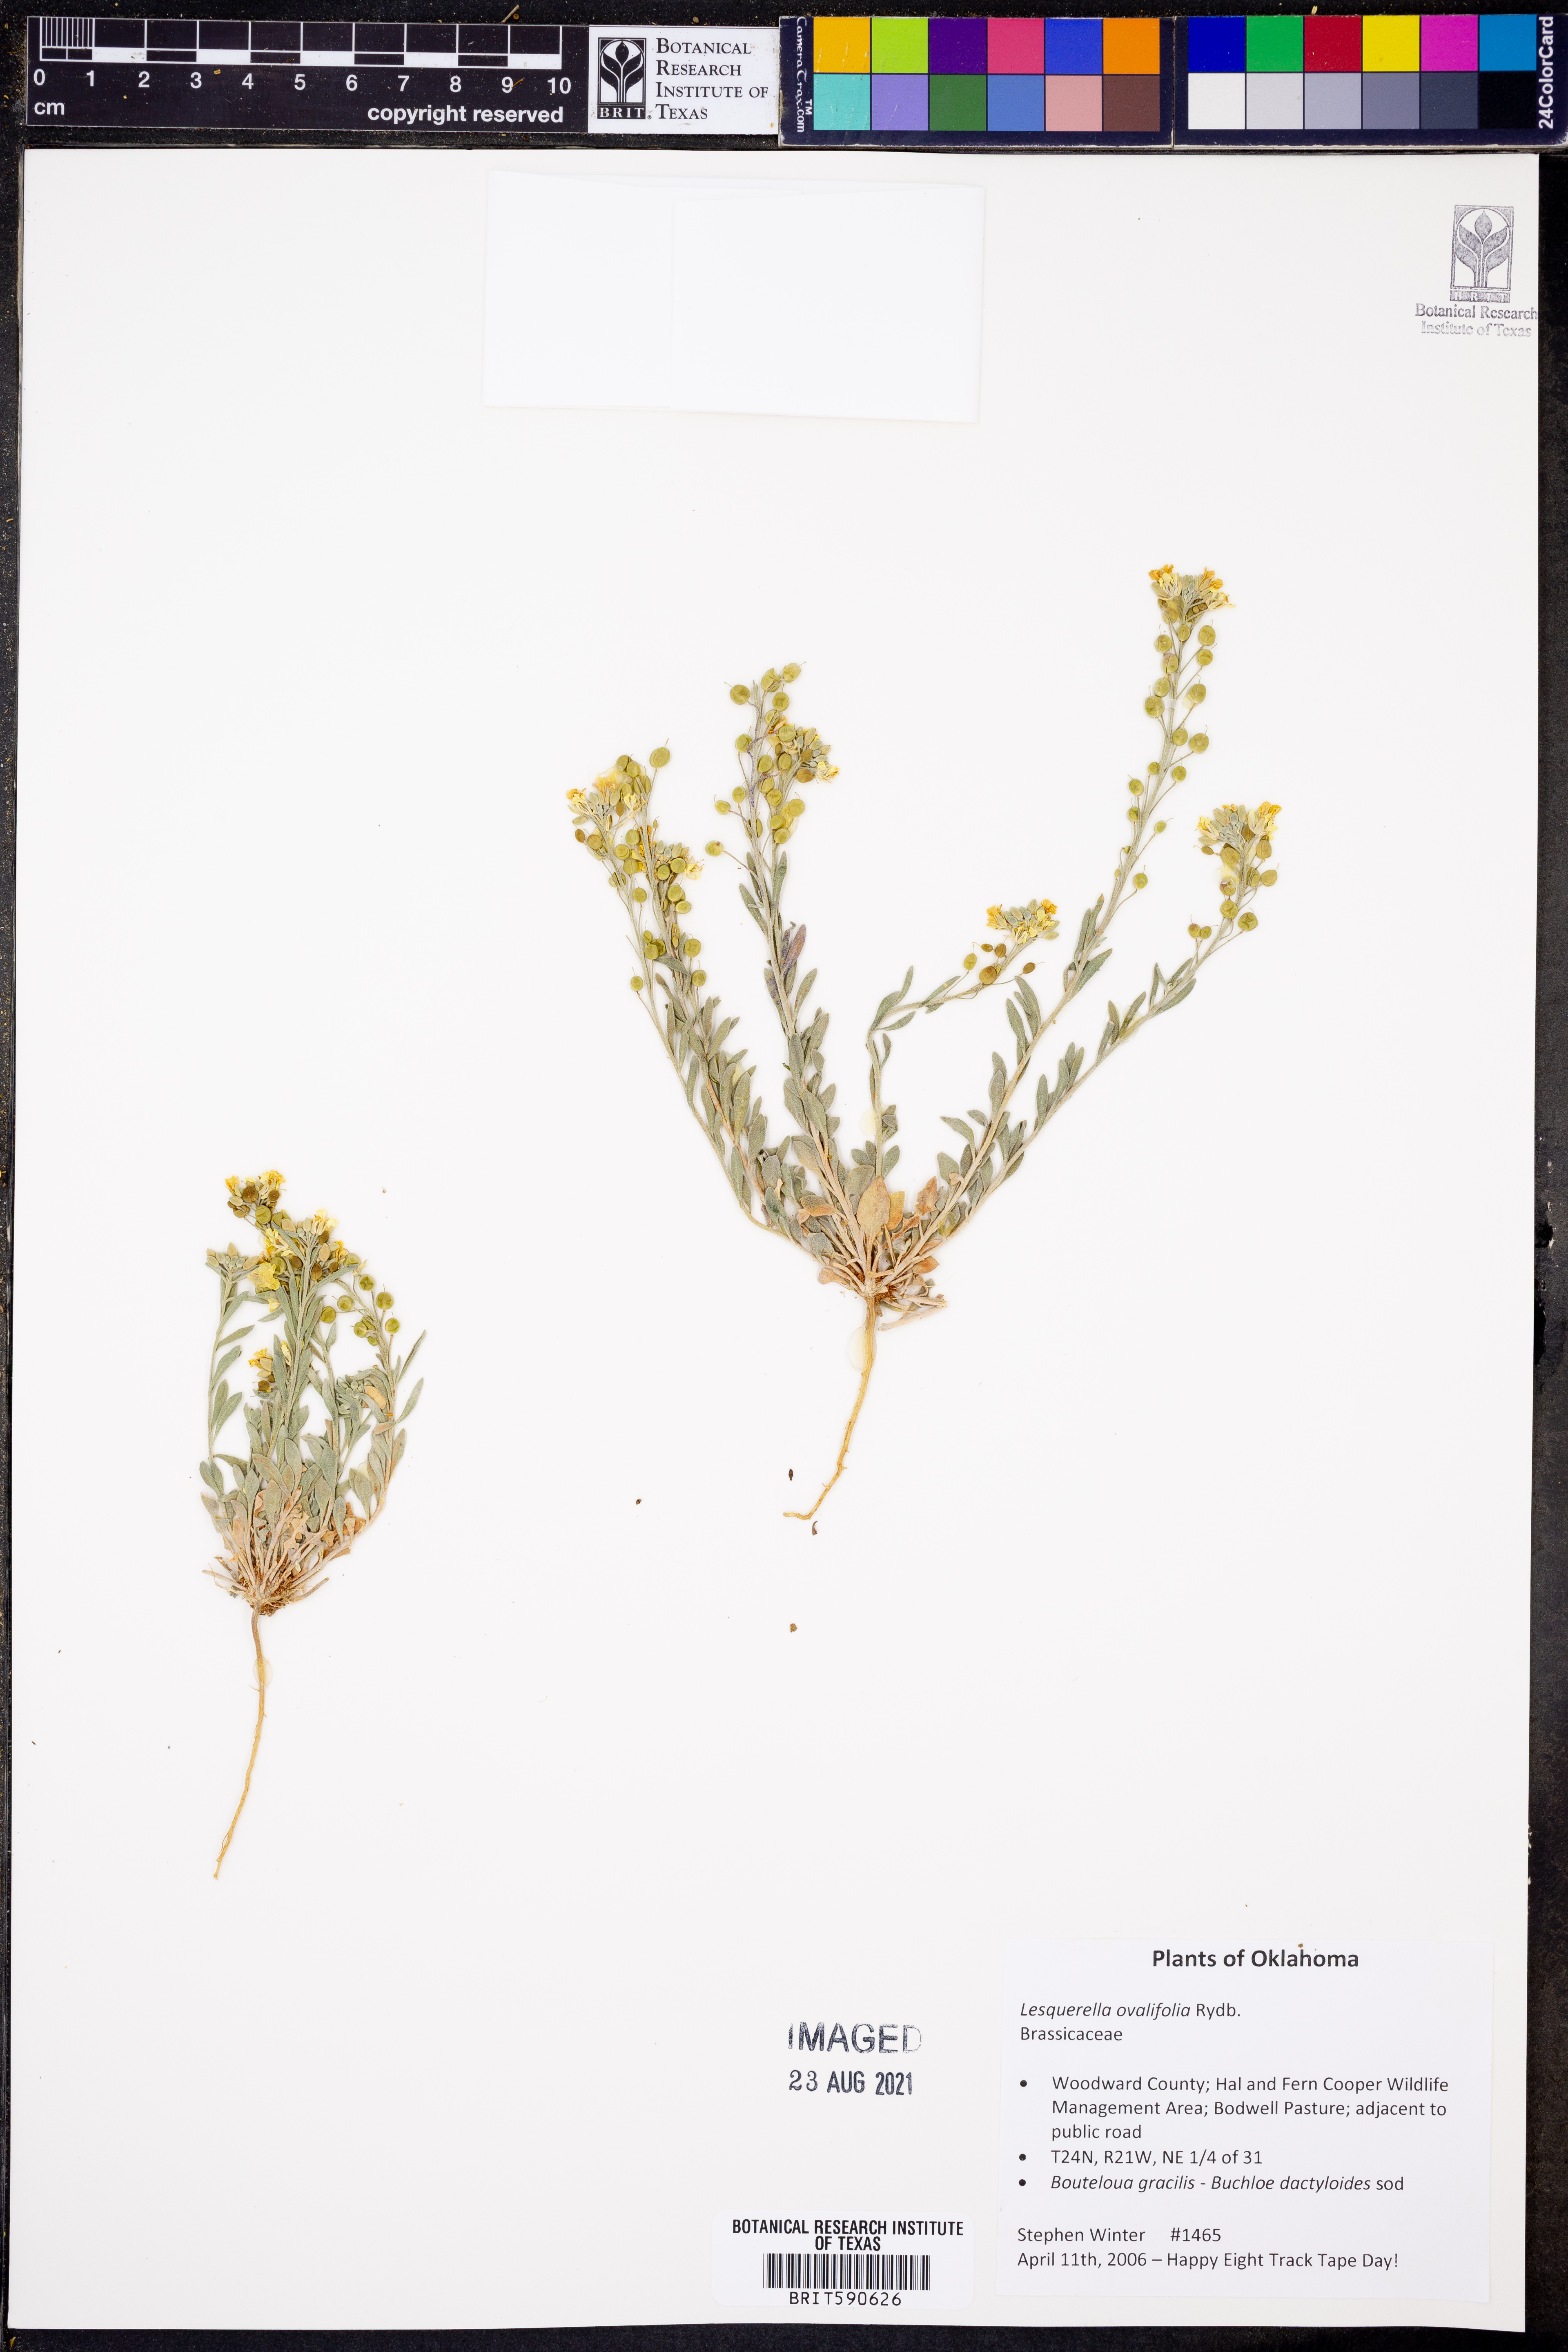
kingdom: Plantae
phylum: Tracheophyta
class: Magnoliopsida
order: Brassicales
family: Brassicaceae
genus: Physaria
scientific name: Physaria ovalifolia
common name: Round-leaf bladderpod
